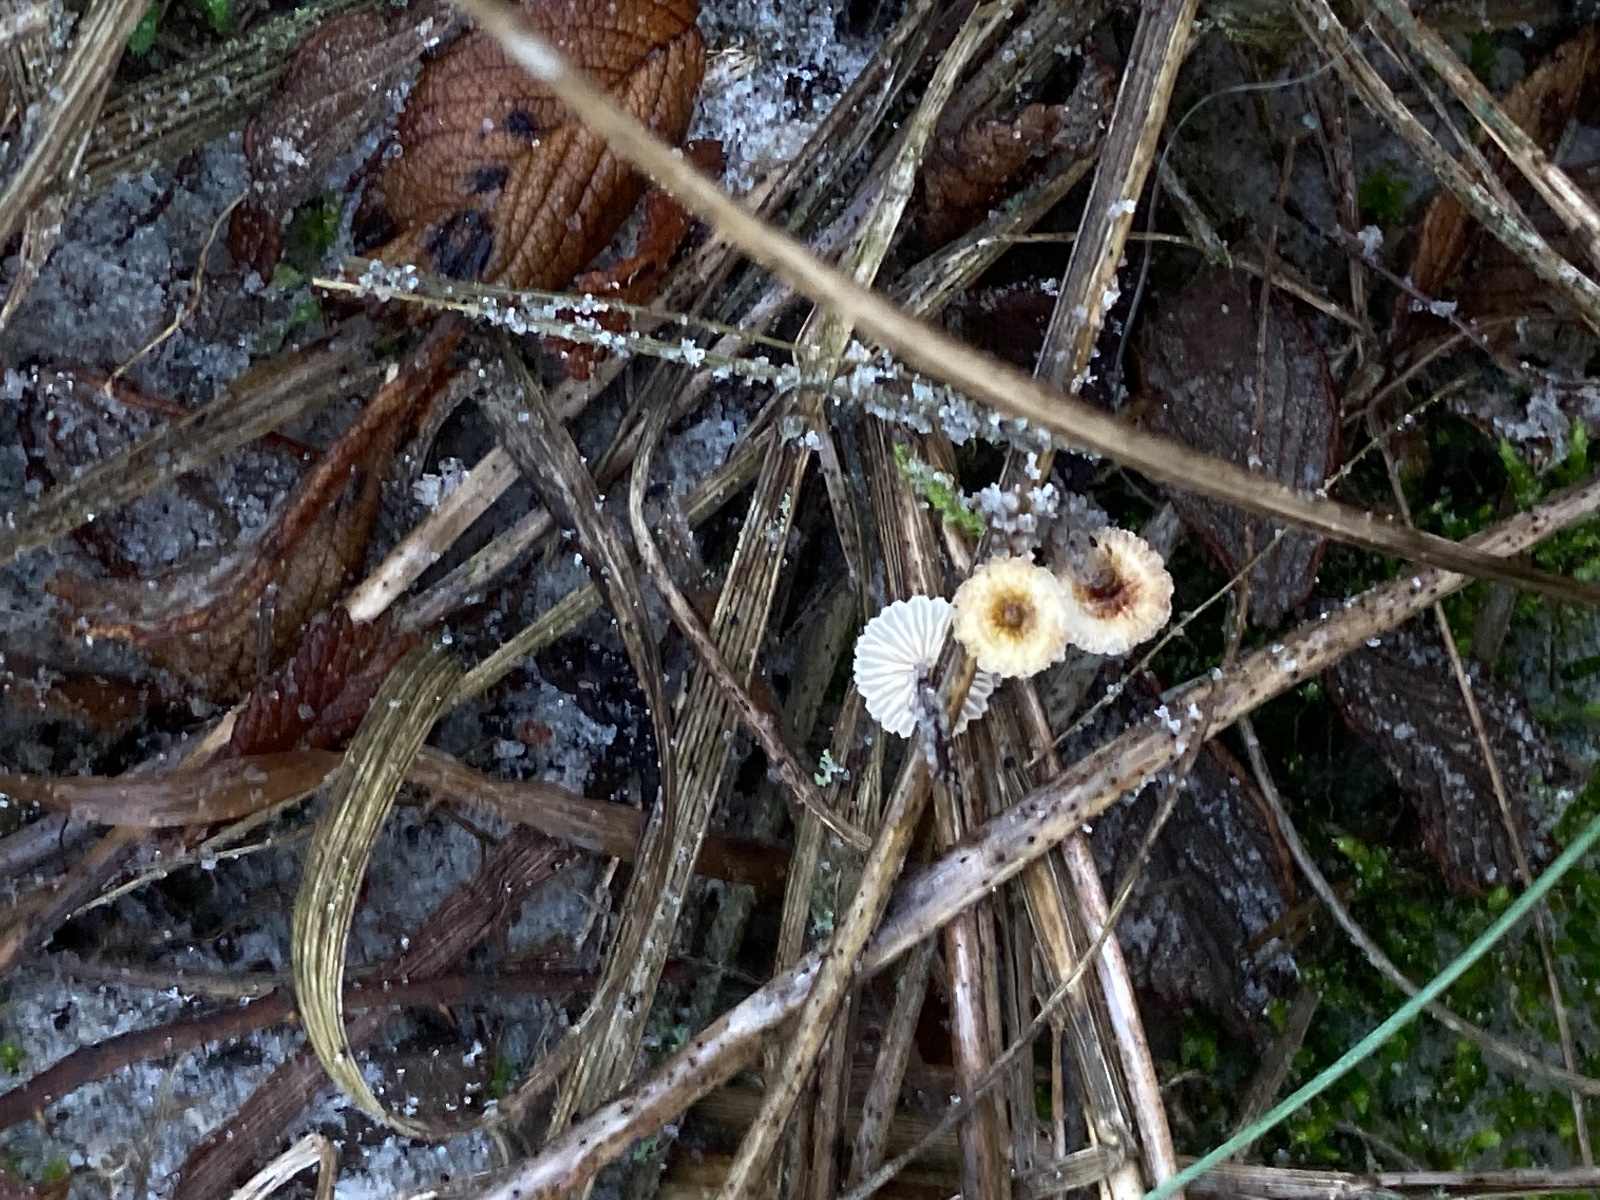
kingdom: Fungi
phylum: Basidiomycota
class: Agaricomycetes
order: Agaricales
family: Marasmiaceae
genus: Crinipellis
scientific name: Crinipellis scabella
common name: børstefod
